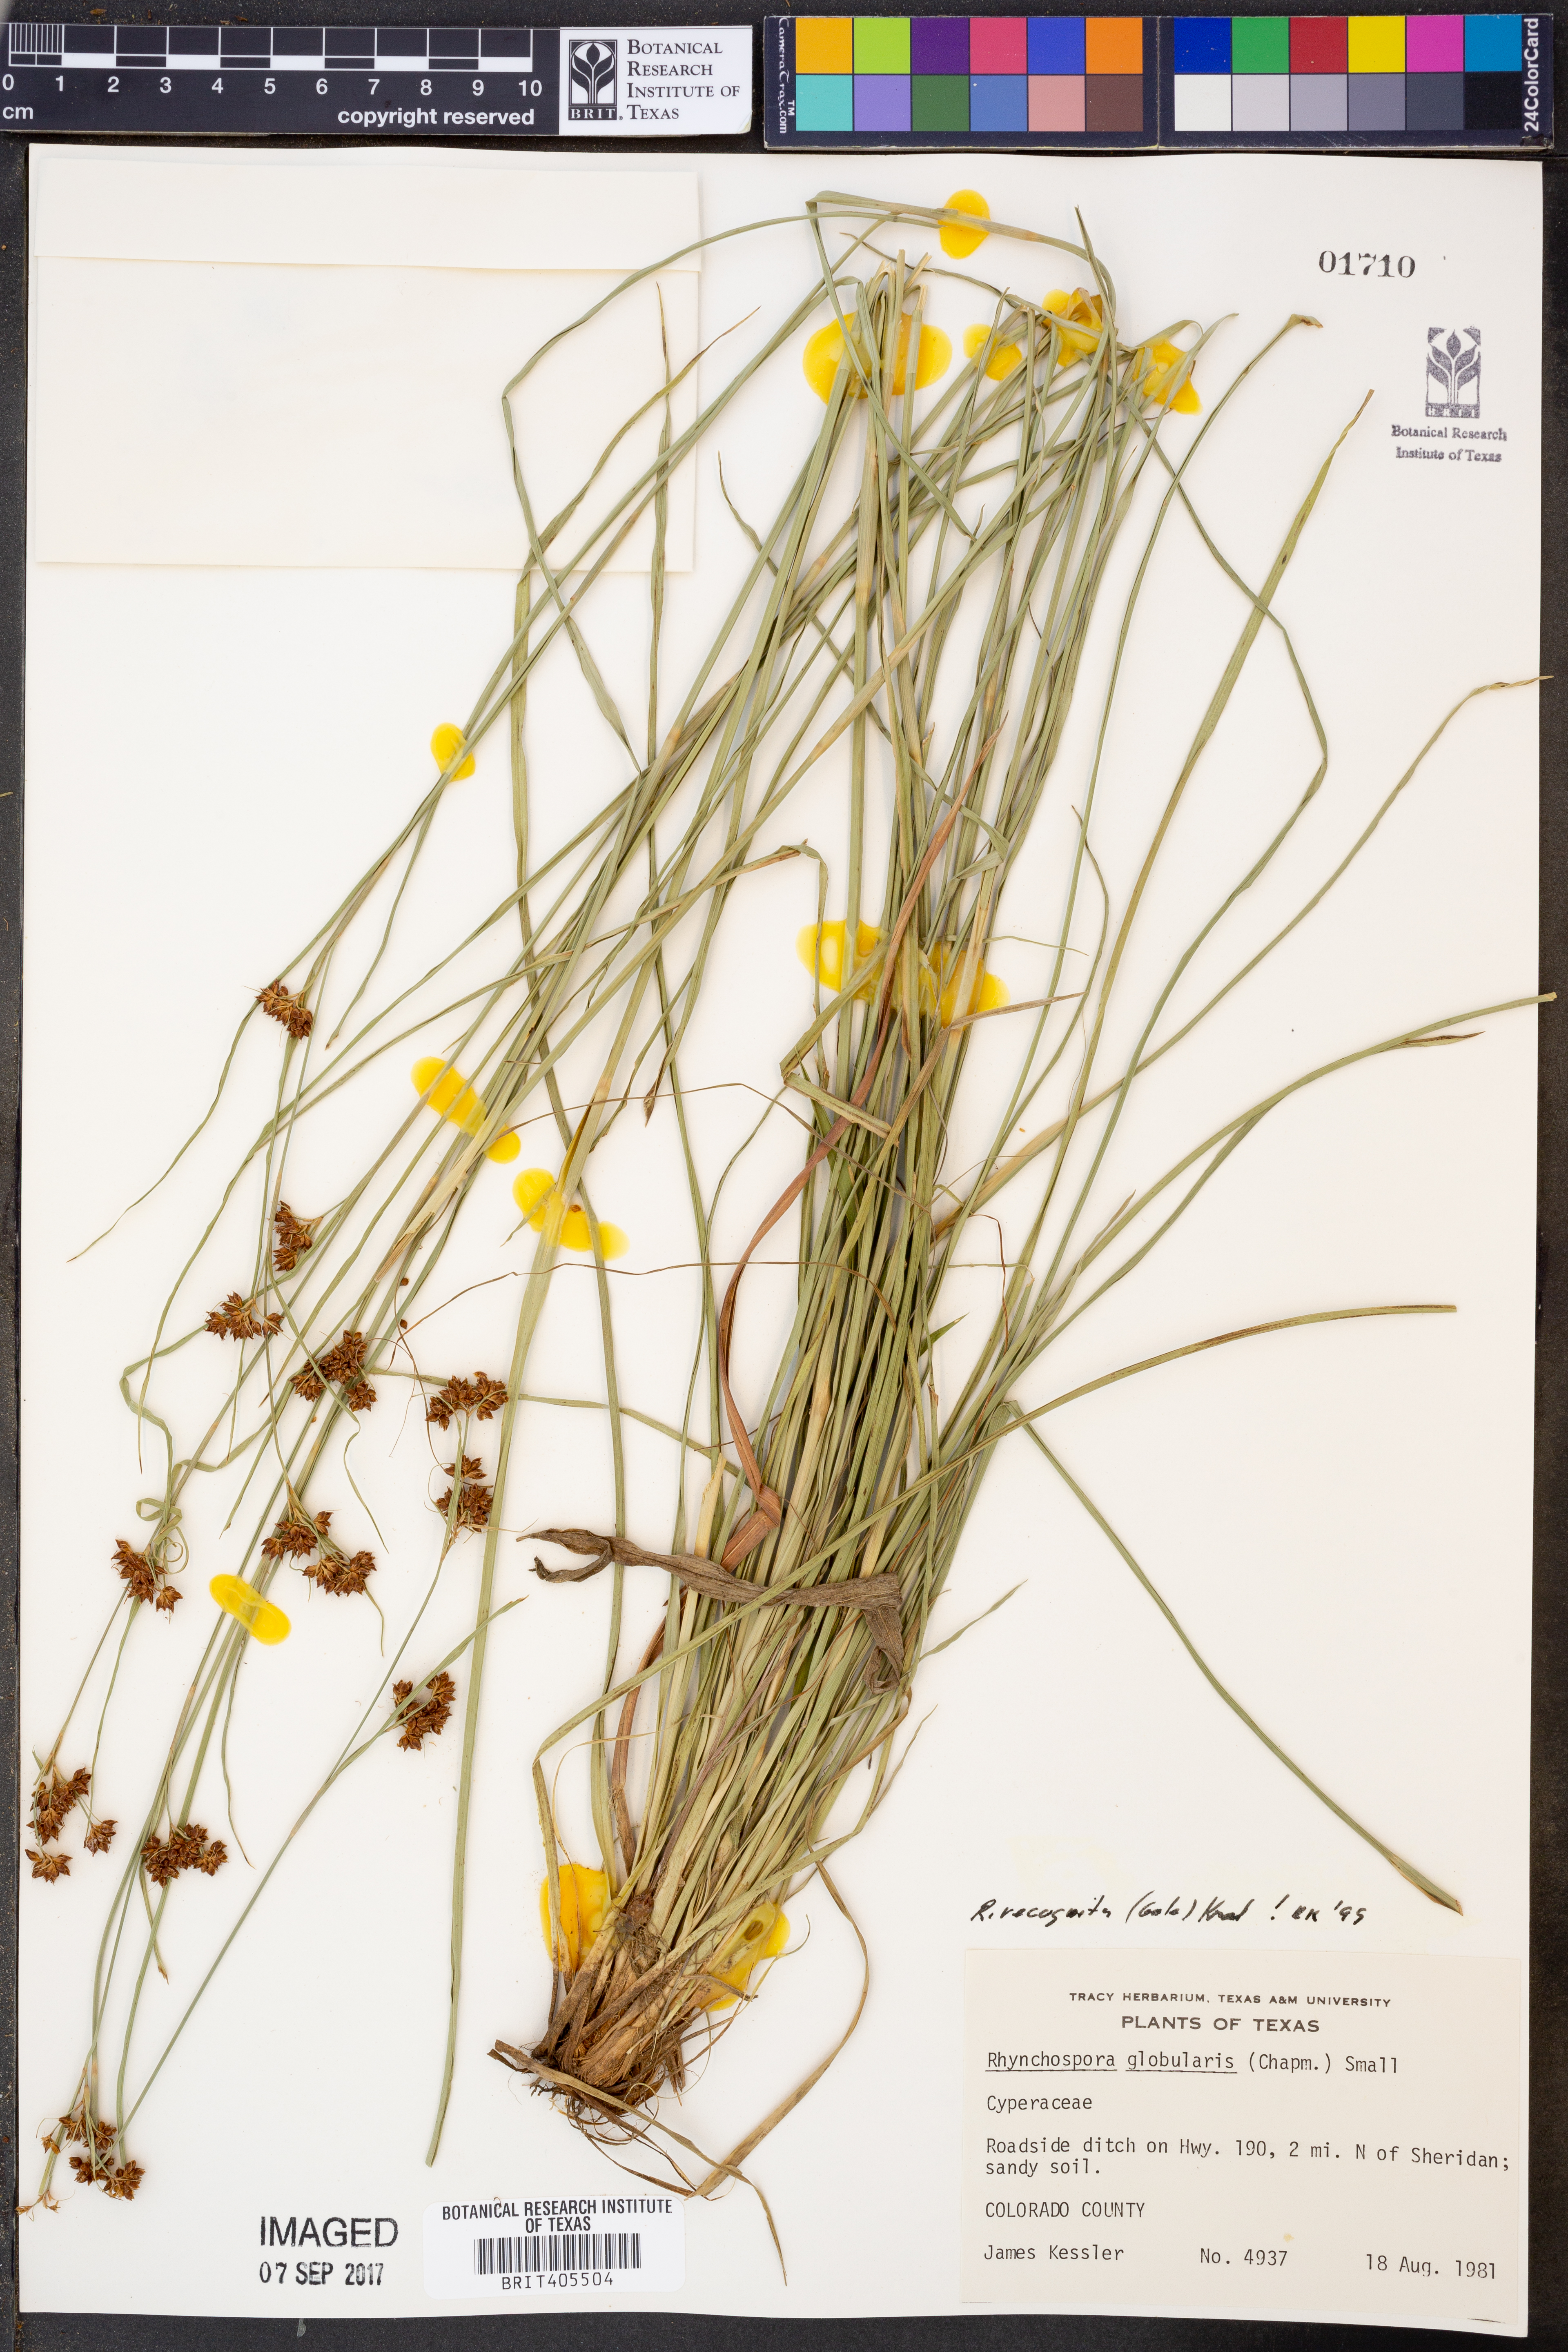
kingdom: Plantae
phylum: Tracheophyta
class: Liliopsida
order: Poales
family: Cyperaceae
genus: Rhynchospora
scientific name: Rhynchospora recognita
